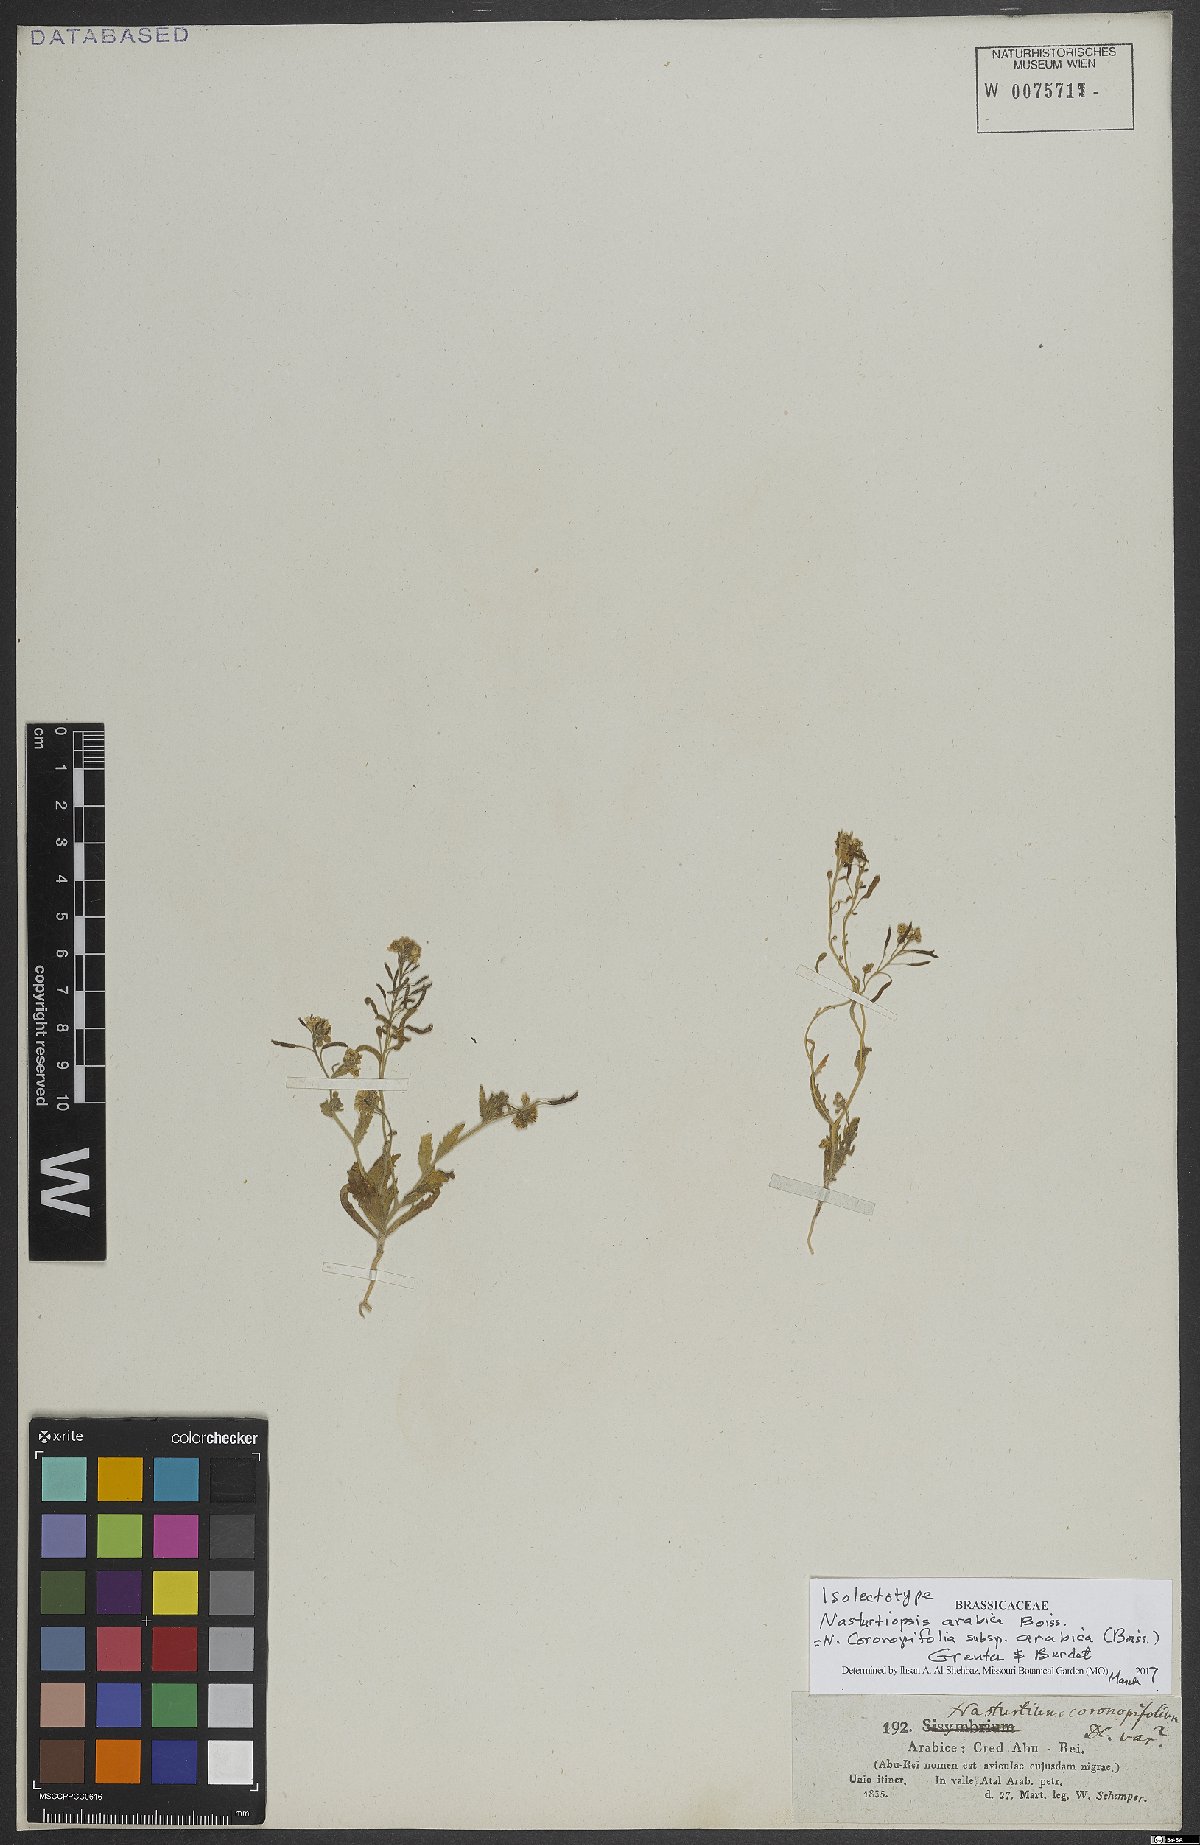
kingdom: Plantae
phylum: Tracheophyta
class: Magnoliopsida
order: Brassicales
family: Brassicaceae
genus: Nasturtiopsis
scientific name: Nasturtiopsis coronopifolia
